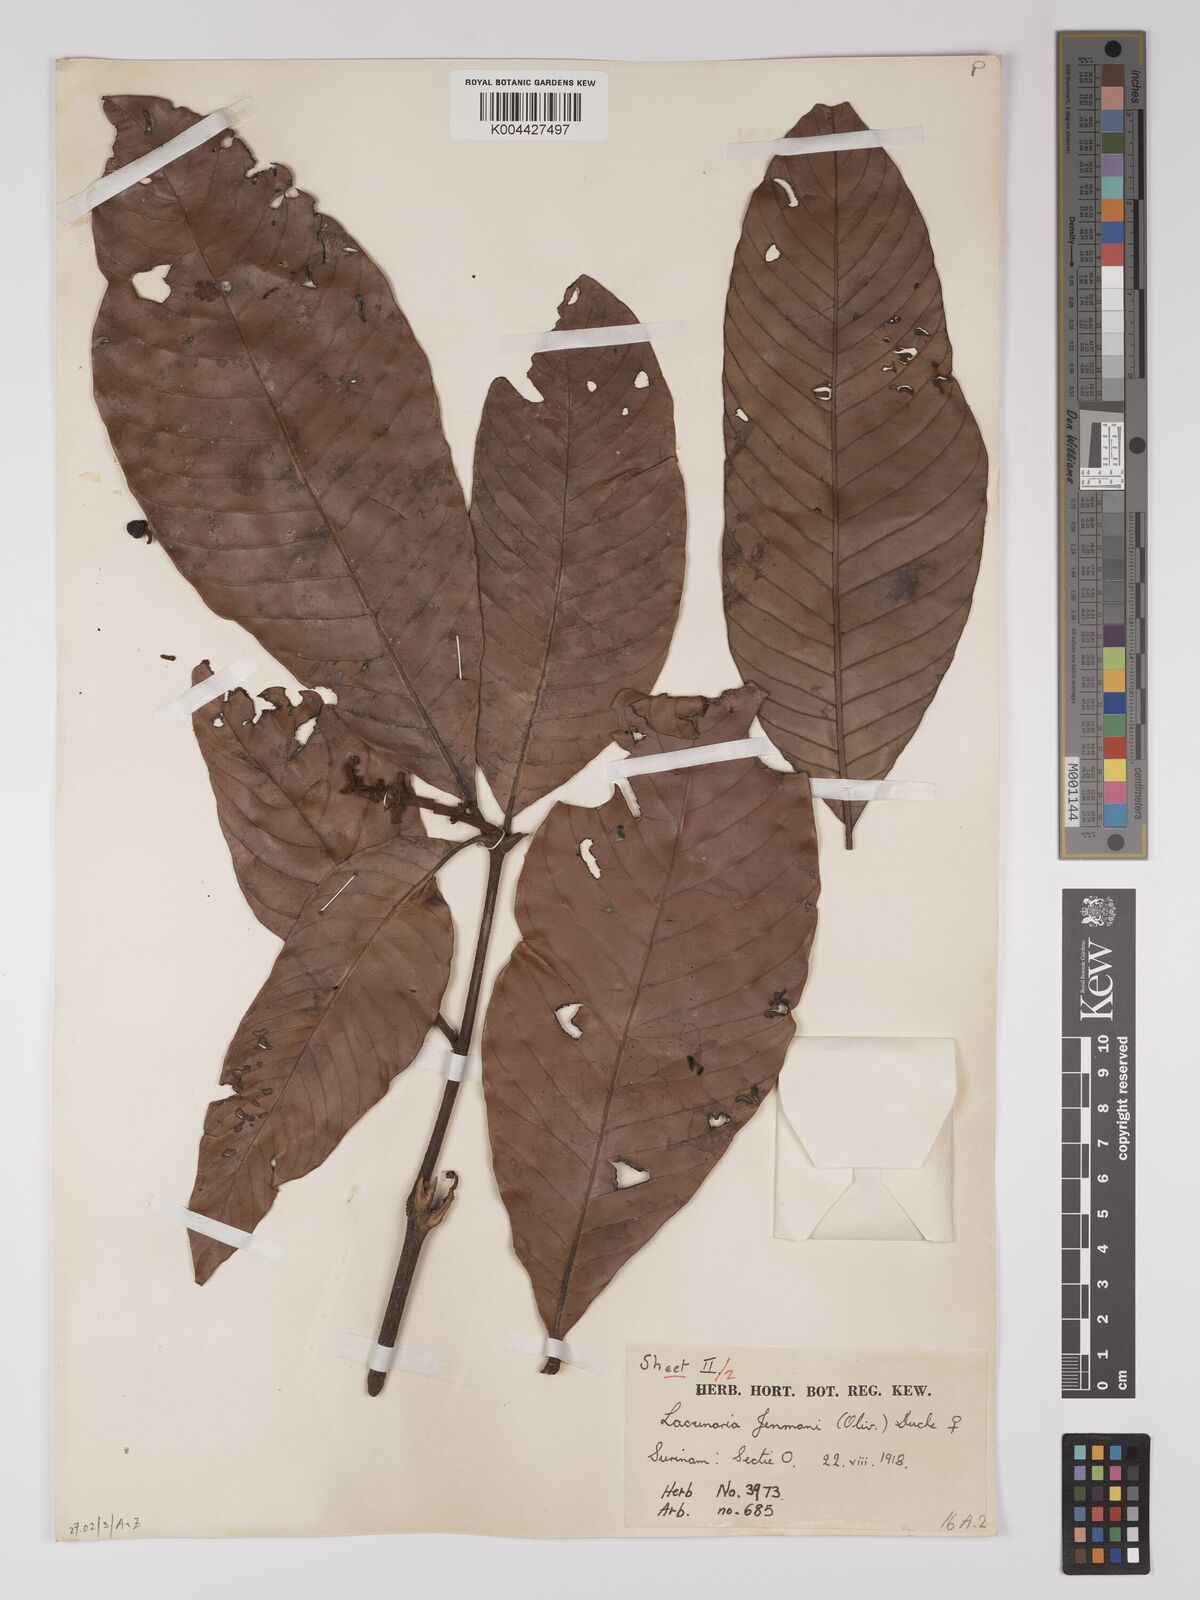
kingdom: Plantae
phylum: Tracheophyta
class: Magnoliopsida
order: Malpighiales
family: Quiinaceae
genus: Lacunaria
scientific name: Lacunaria jenmanii
